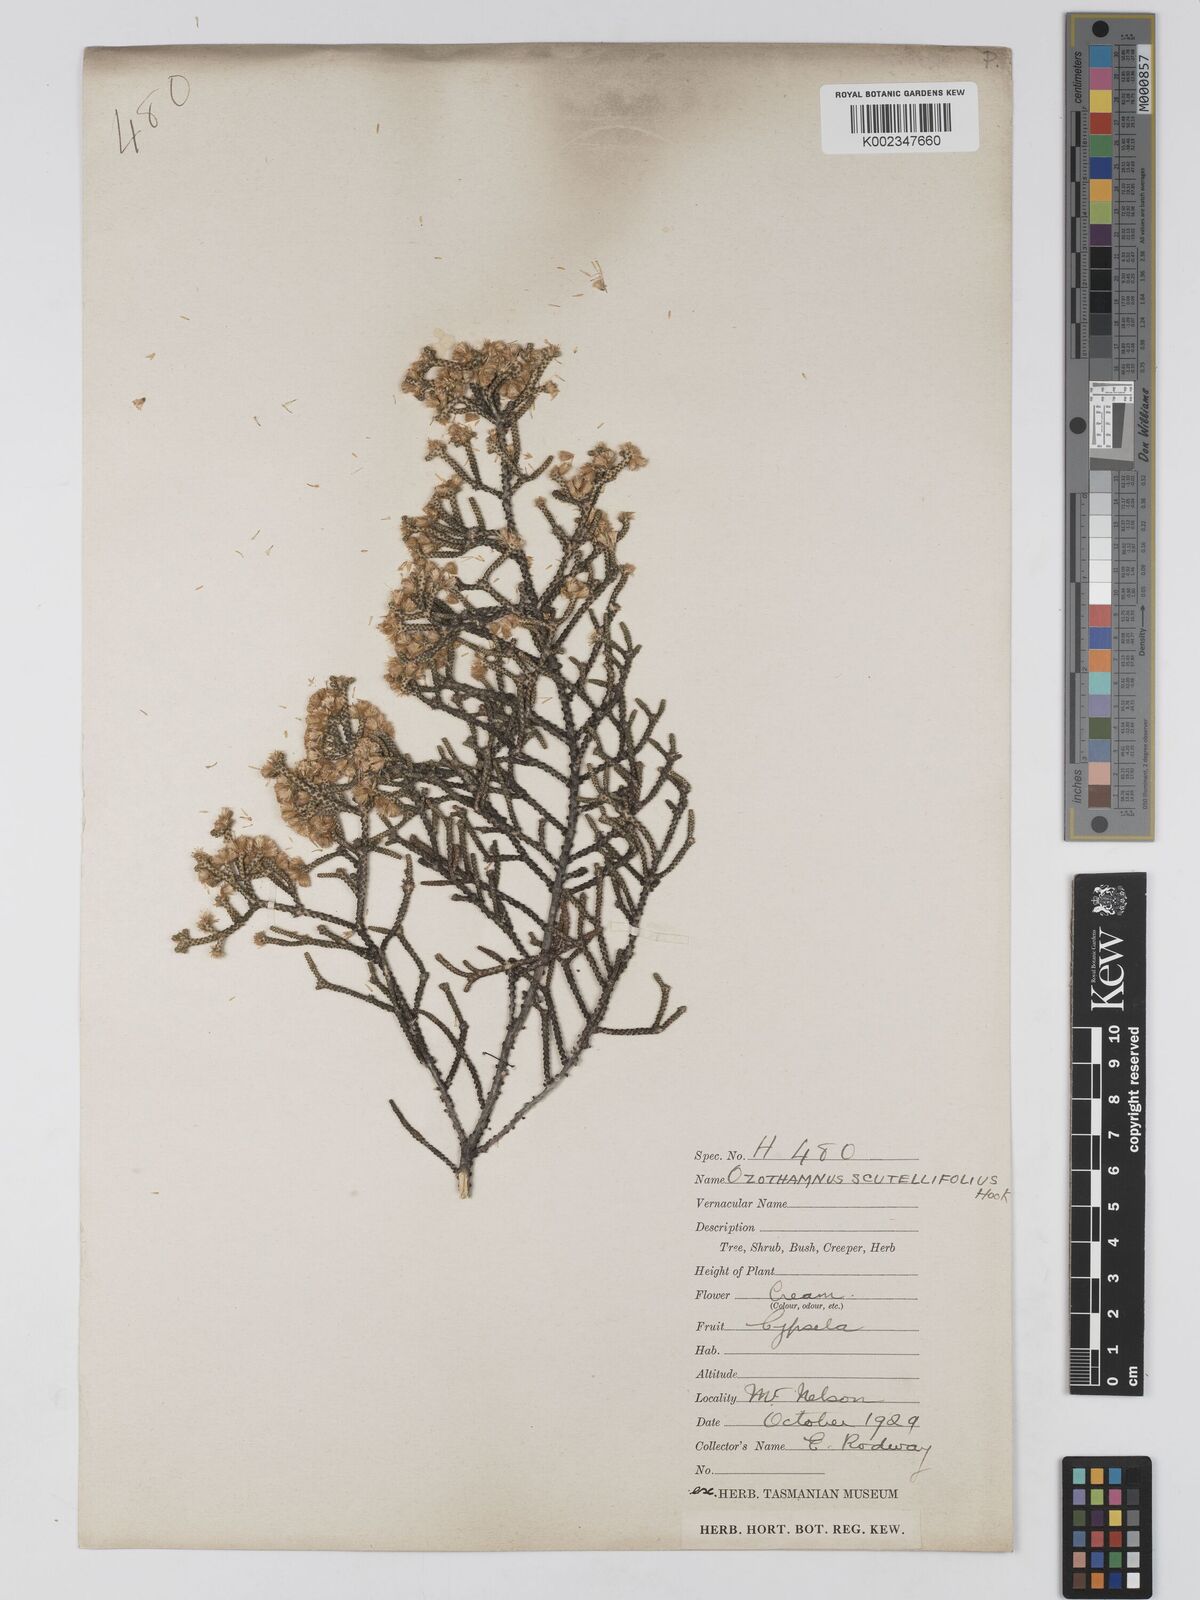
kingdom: Plantae
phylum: Tracheophyta
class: Magnoliopsida
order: Asterales
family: Asteraceae
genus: Ozothamnus
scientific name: Ozothamnus scutellifolius
